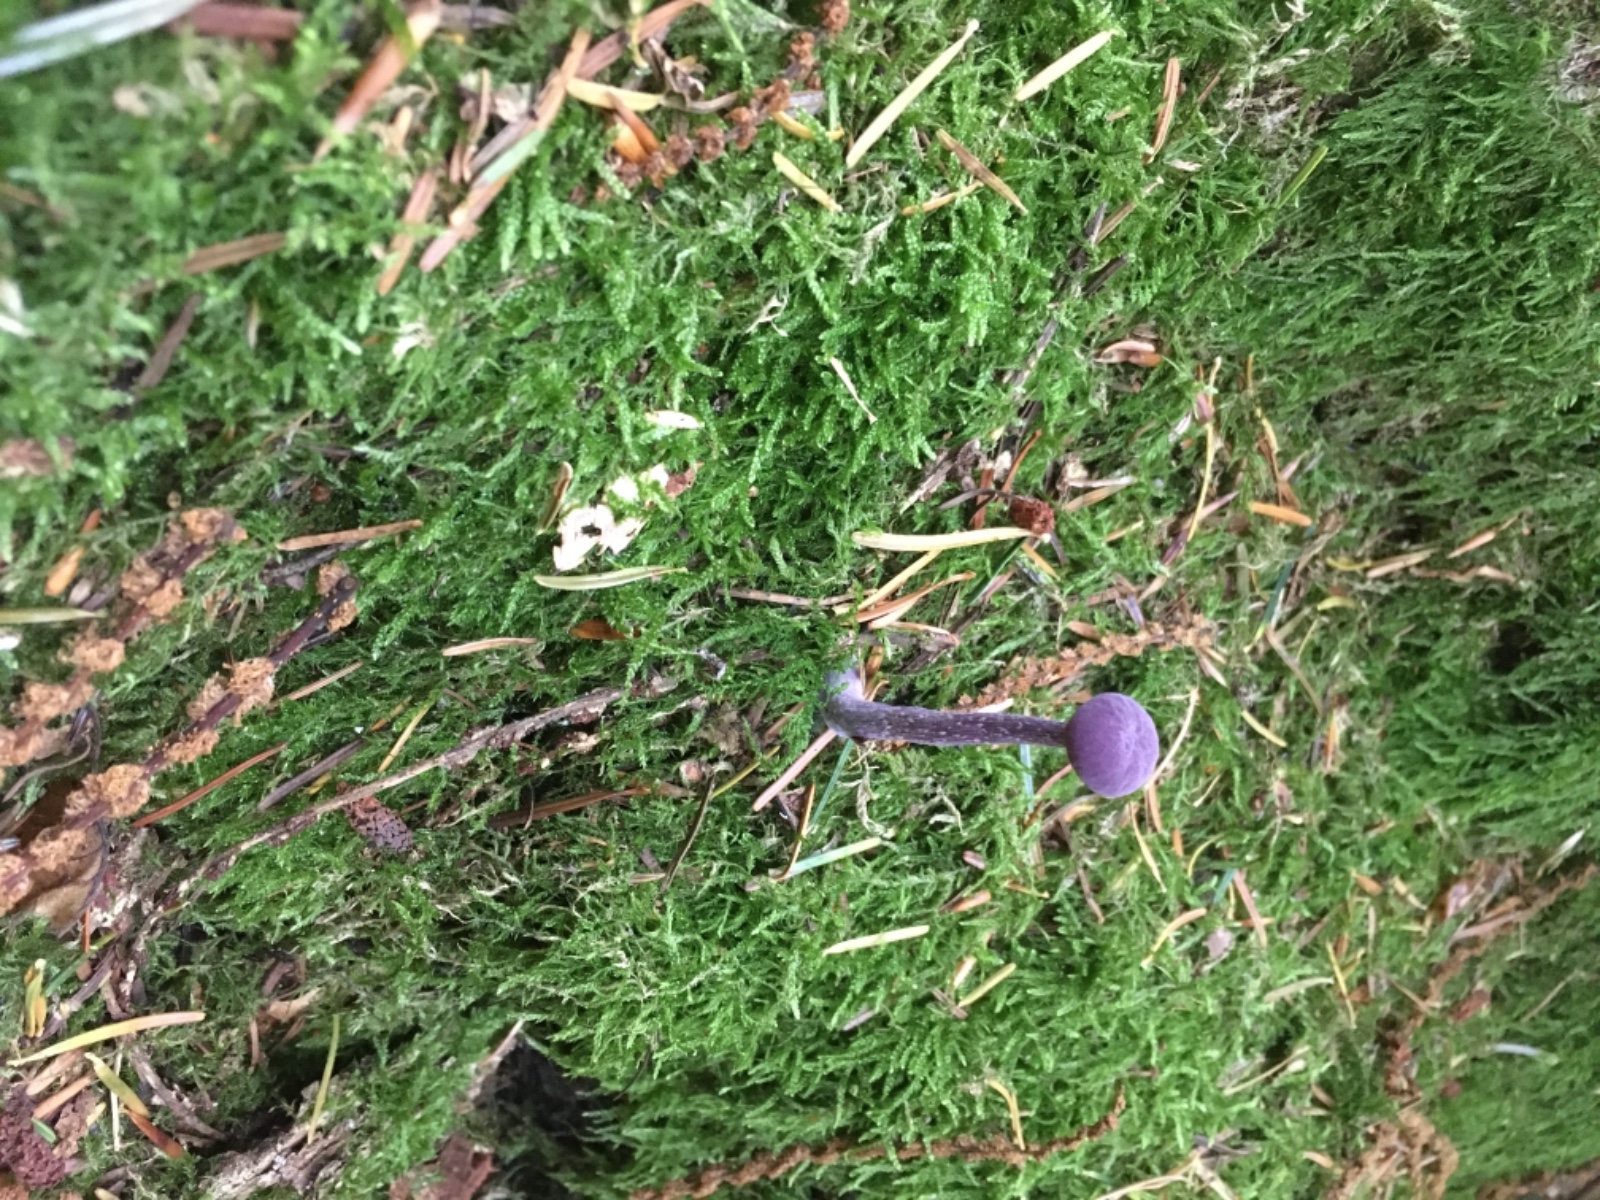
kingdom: Fungi
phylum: Basidiomycota
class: Agaricomycetes
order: Agaricales
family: Hydnangiaceae
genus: Laccaria
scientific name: Laccaria amethystina
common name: violet ametysthat
